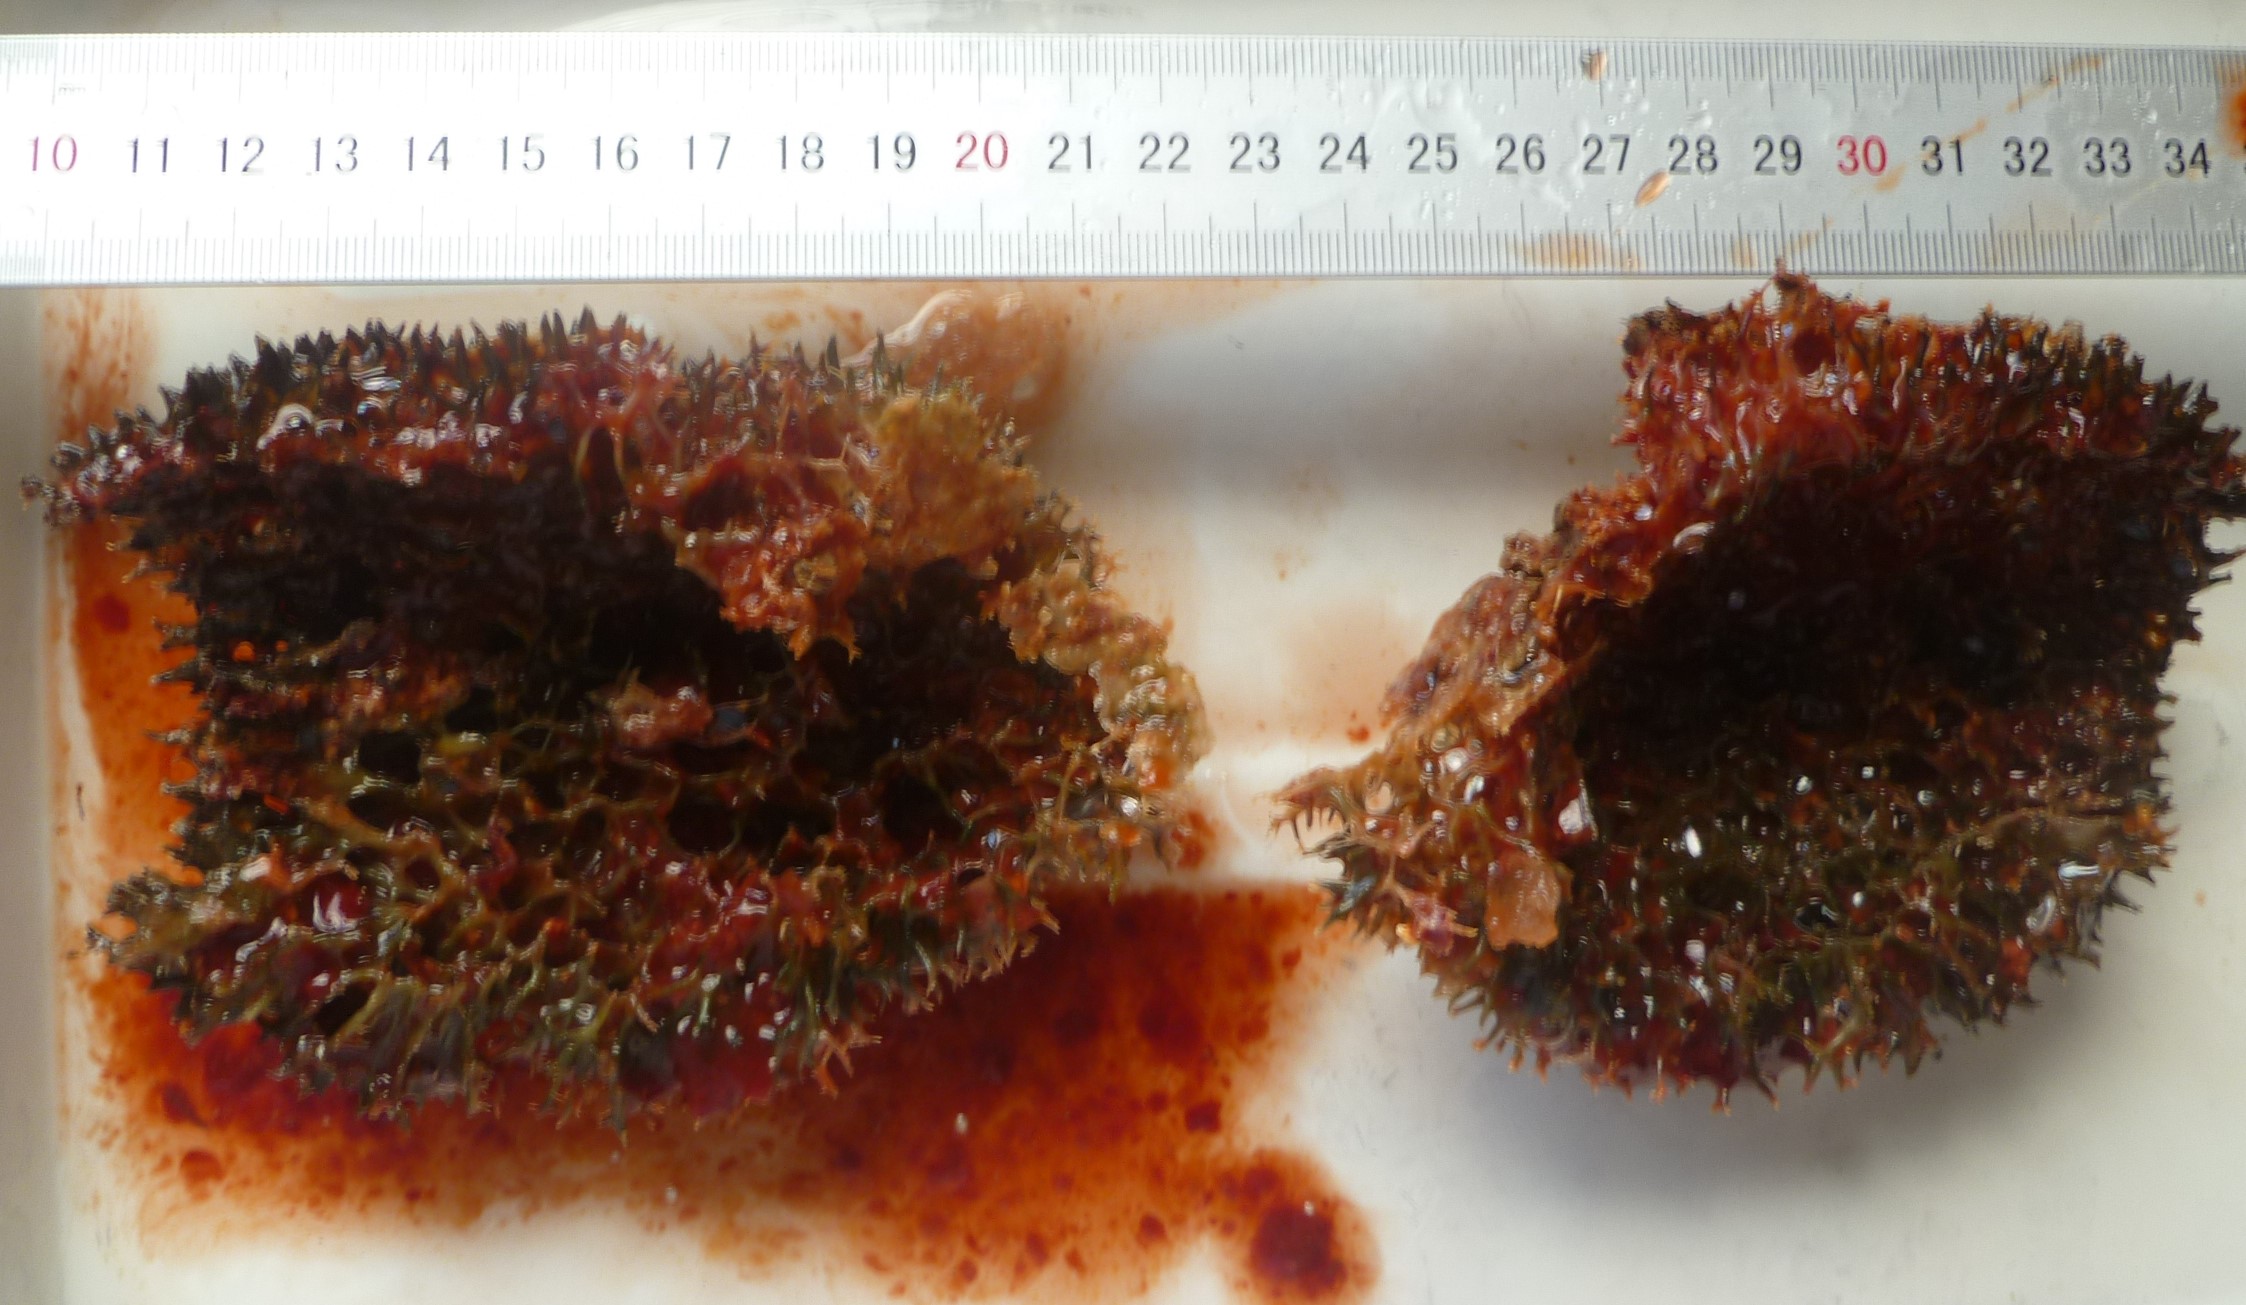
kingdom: Animalia
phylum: Porifera
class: Demospongiae
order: Poecilosclerida
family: Mycalidae
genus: Mycale
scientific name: Mycale laxissima
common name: Strawberry vase sponge
